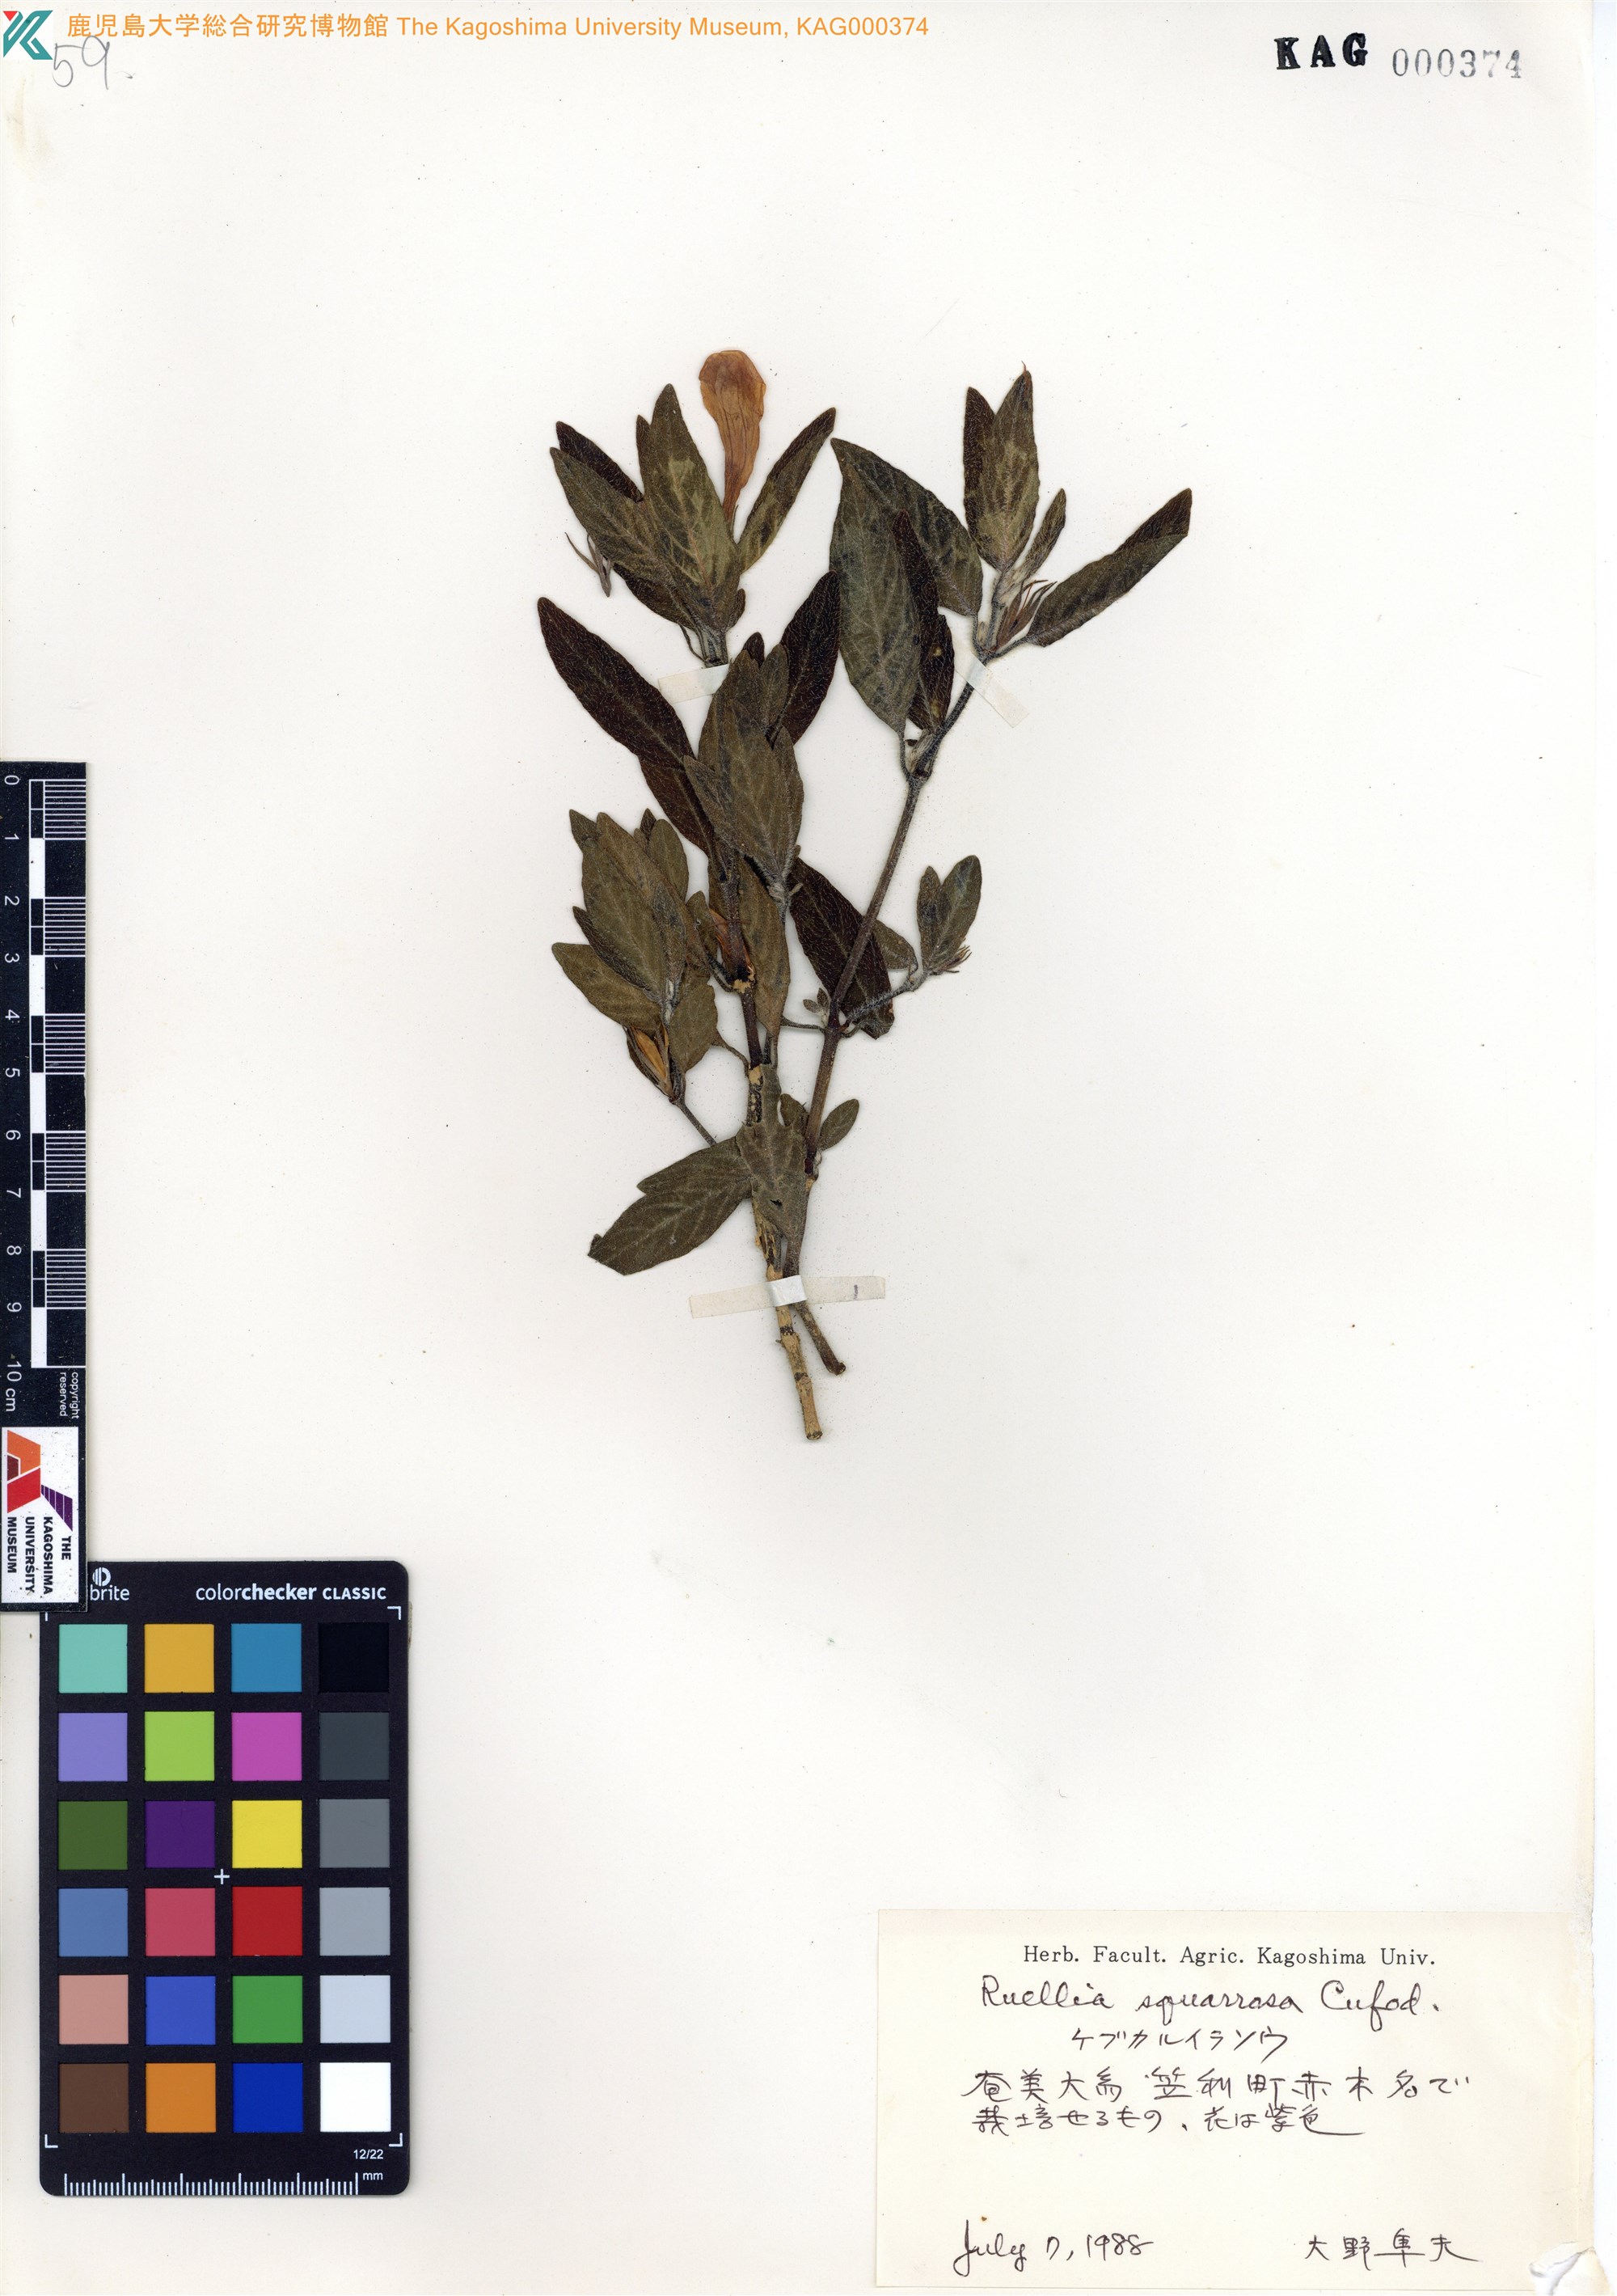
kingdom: Plantae
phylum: Tracheophyta
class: Magnoliopsida
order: Lamiales
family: Acanthaceae
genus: Ruellia
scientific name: Ruellia squarrosa
